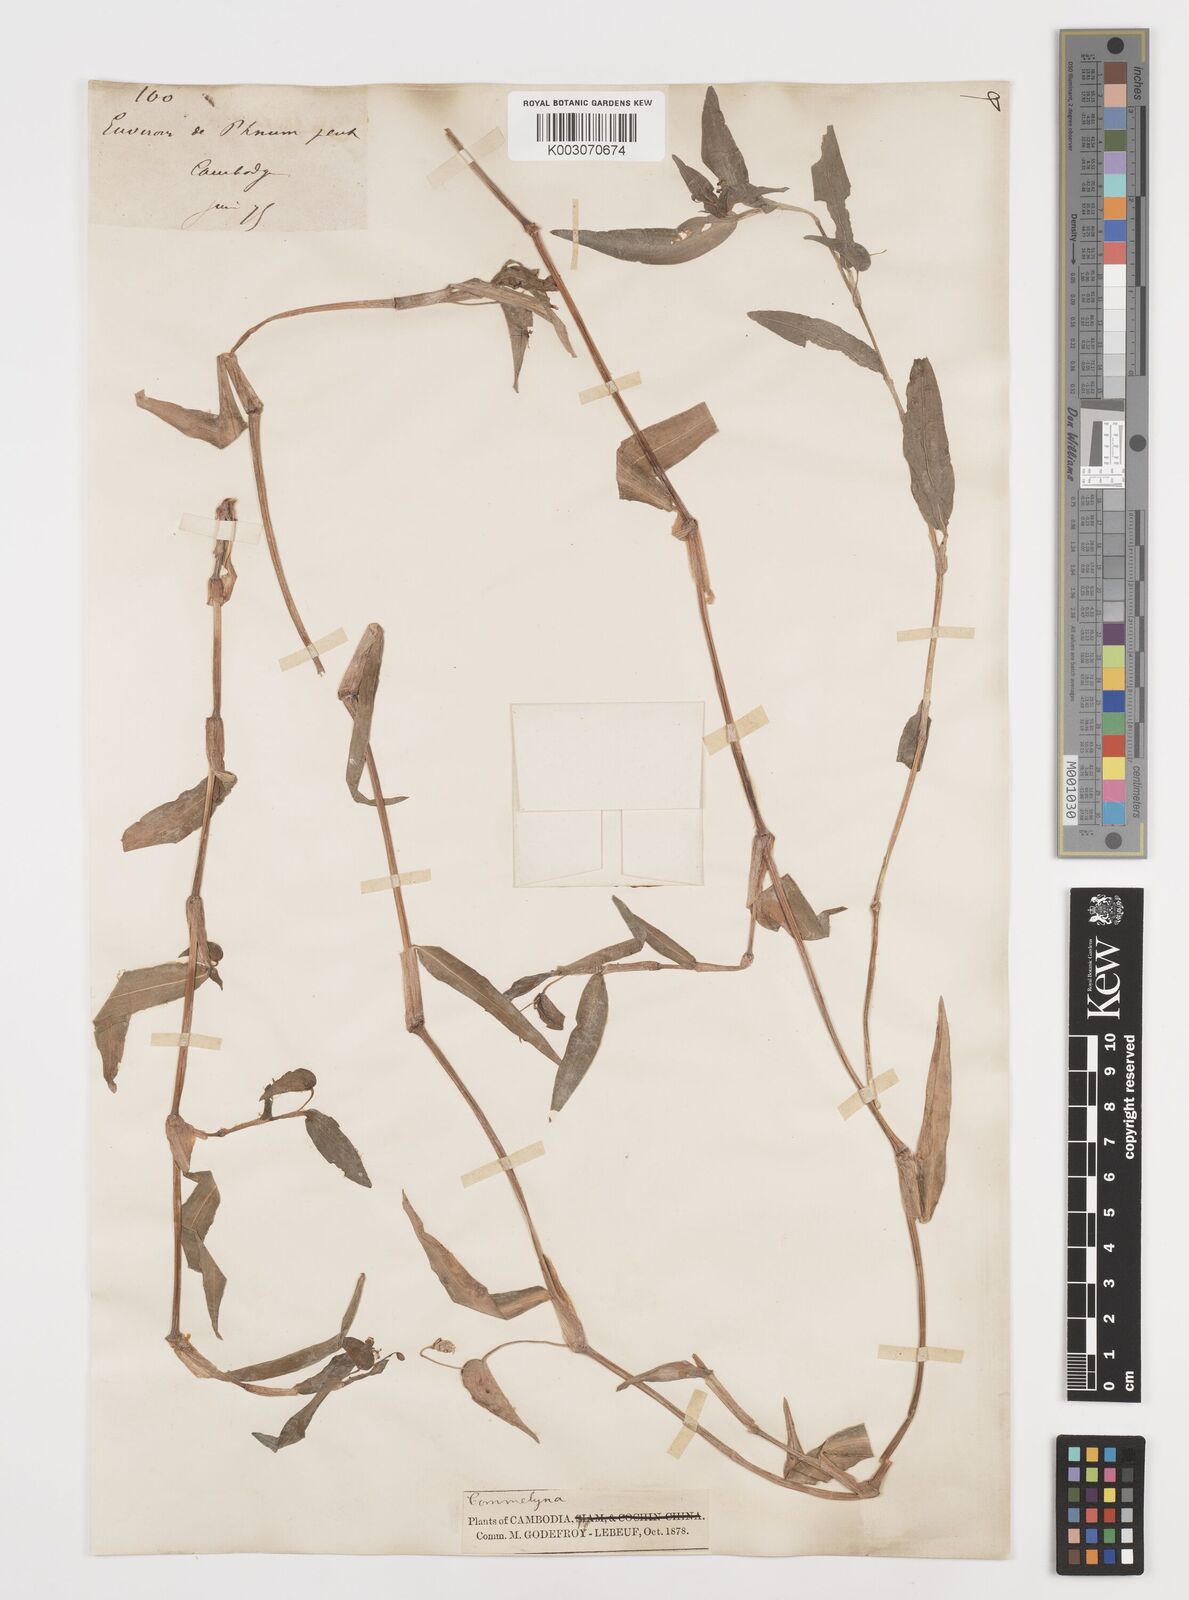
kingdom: Plantae
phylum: Tracheophyta
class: Liliopsida
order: Commelinales
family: Commelinaceae
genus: Commelina
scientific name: Commelina
